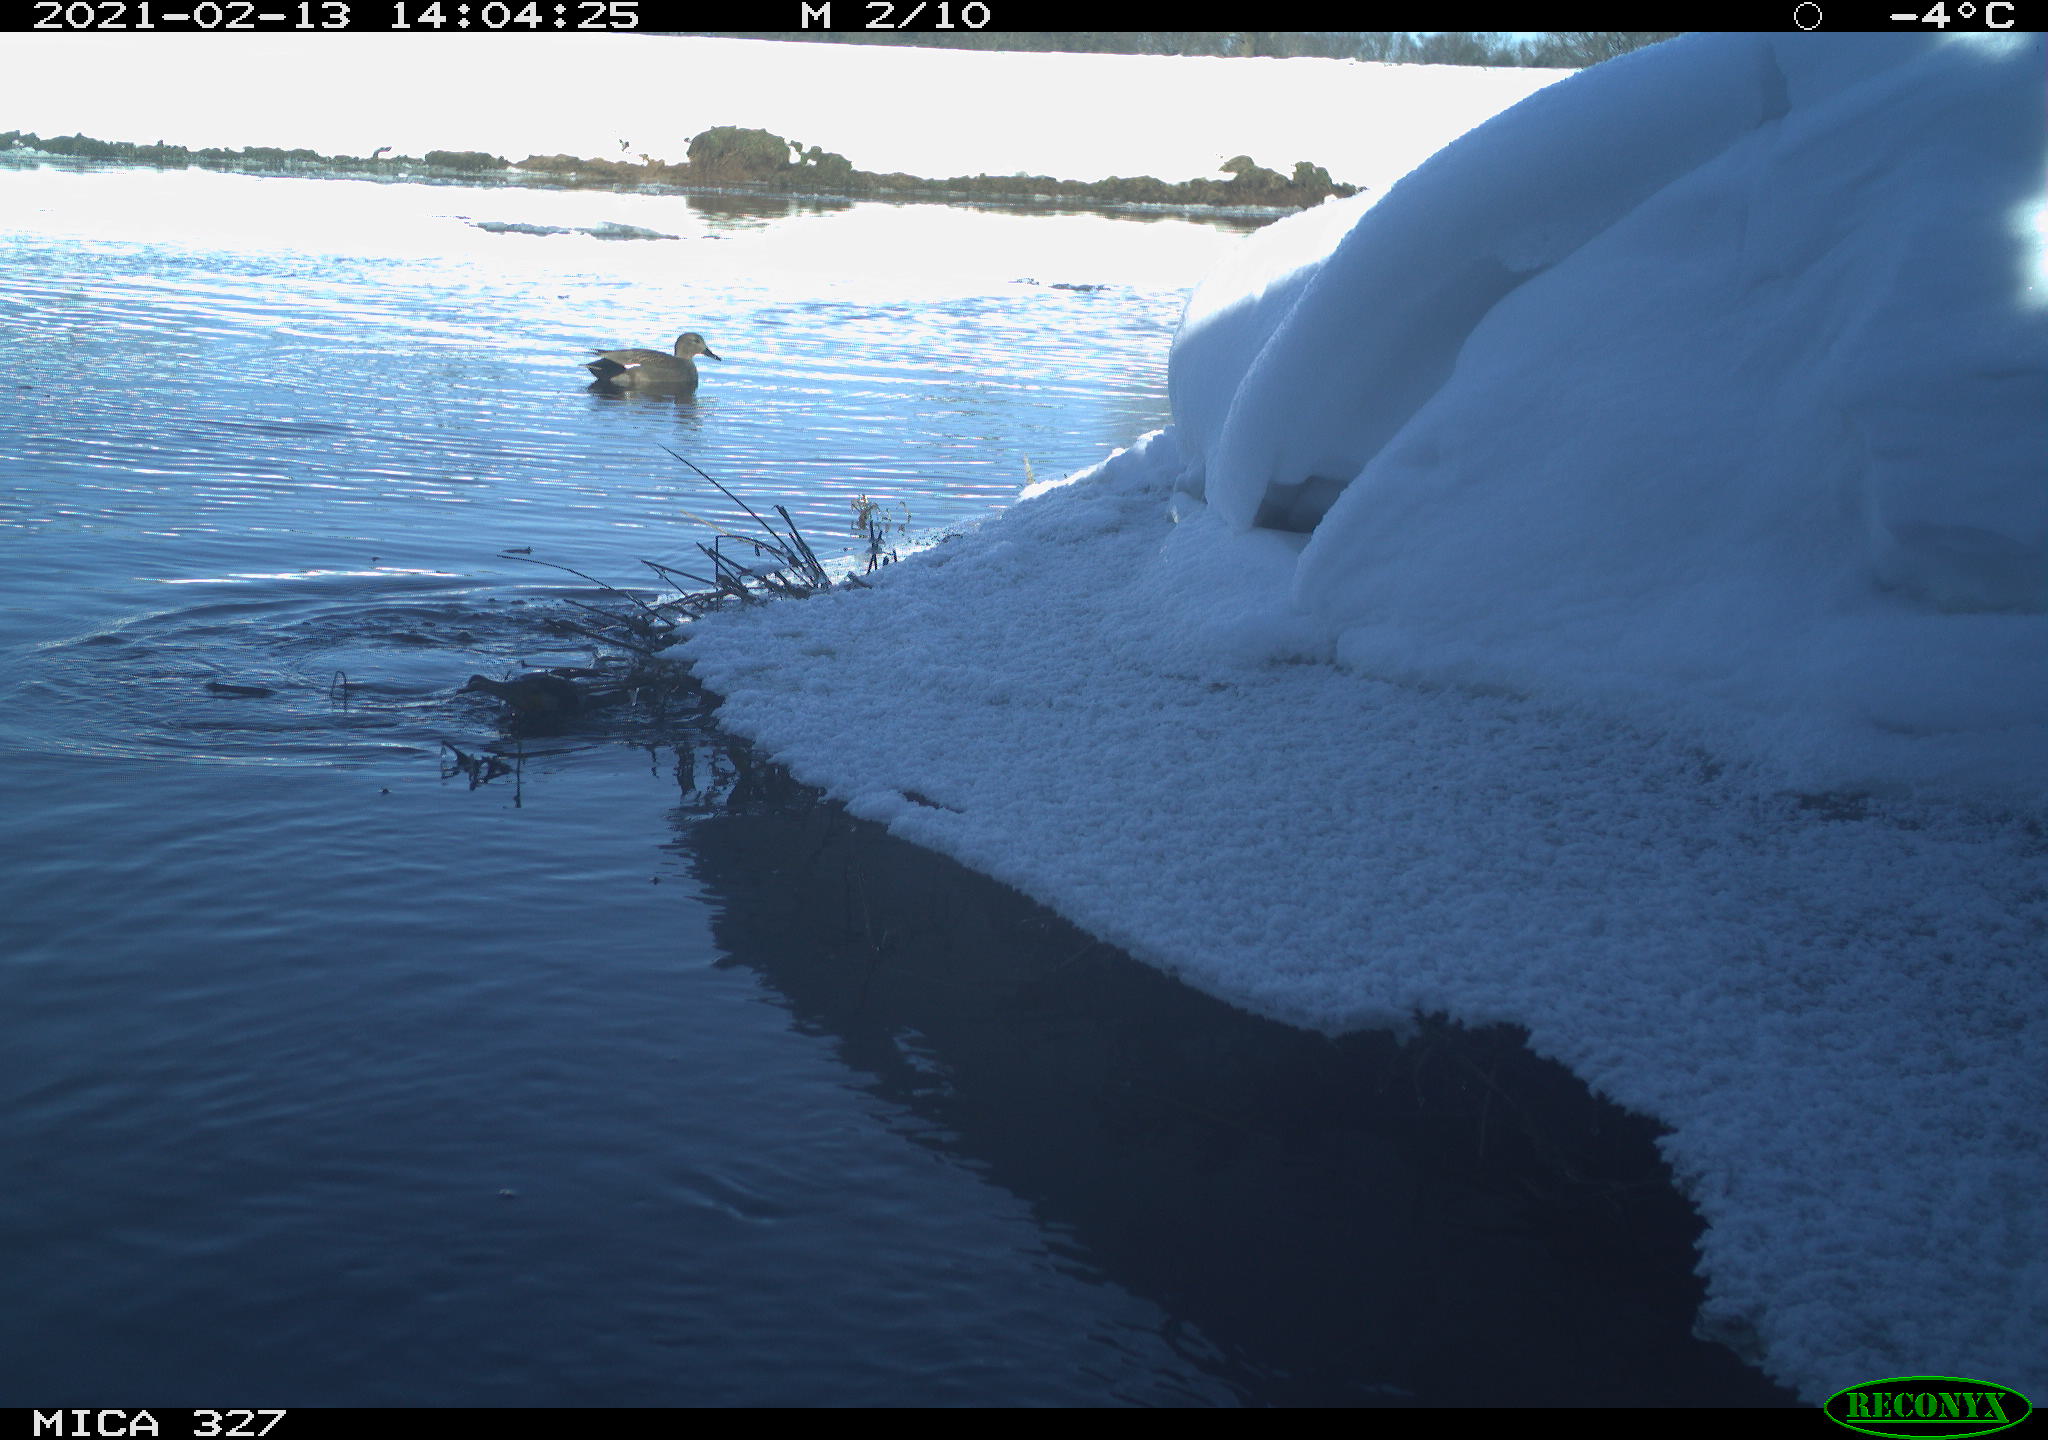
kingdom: Animalia
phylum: Chordata
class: Aves
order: Anseriformes
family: Anatidae
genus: Anas
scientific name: Anas platyrhynchos
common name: Mallard
